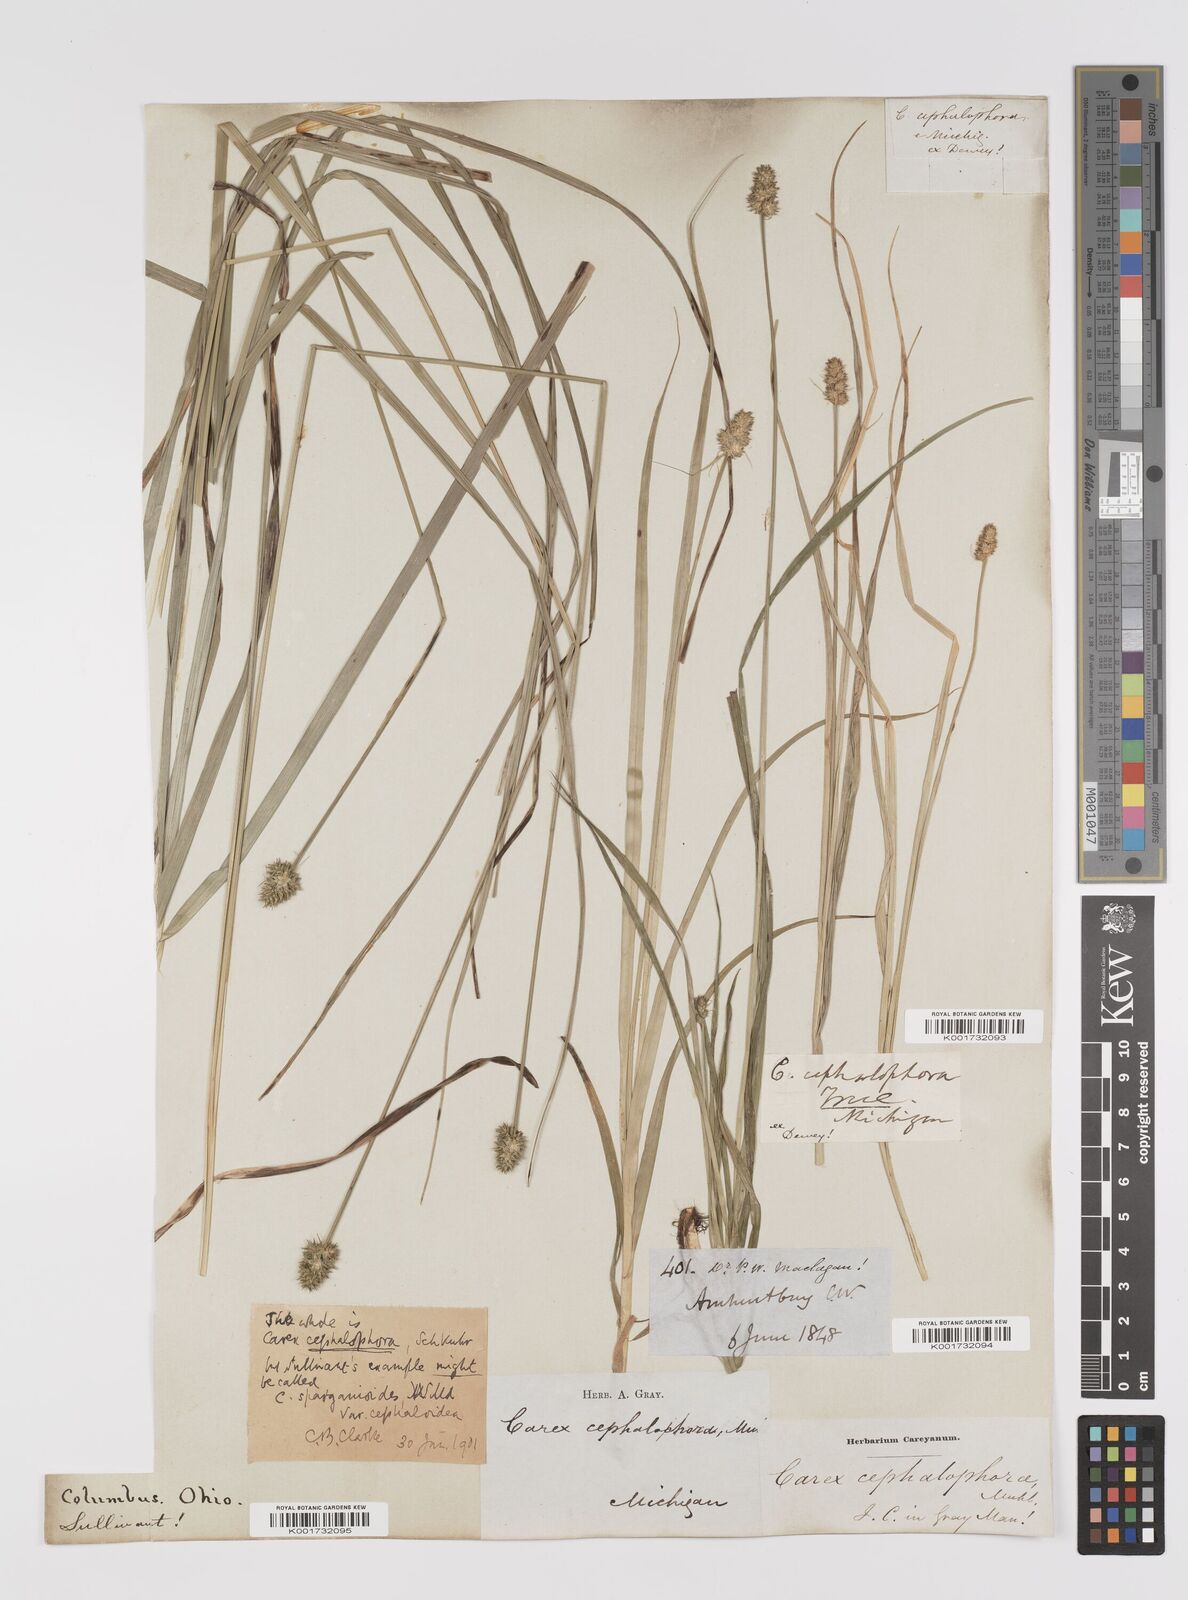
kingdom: Plantae
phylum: Tracheophyta
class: Liliopsida
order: Poales
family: Cyperaceae
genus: Carex
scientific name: Carex cephalophora
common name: Oval-headed sedge
